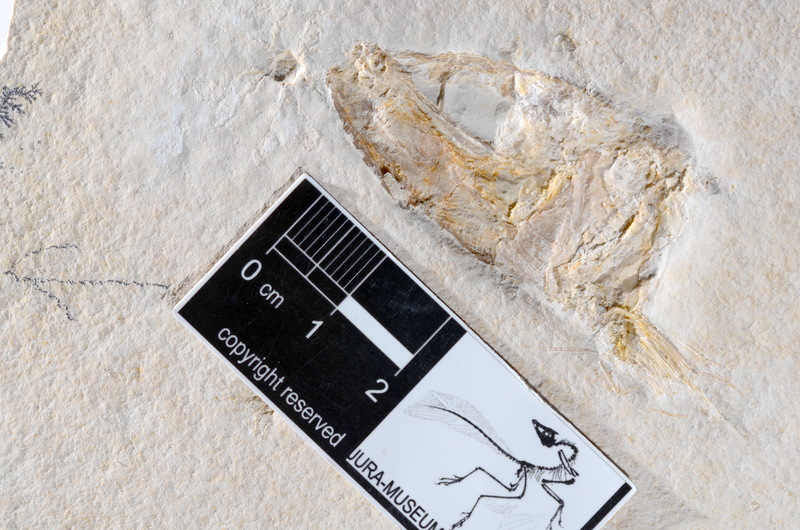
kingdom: Animalia
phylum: Chordata
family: Ascalaboidae
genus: Tharsis
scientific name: Tharsis dubius
